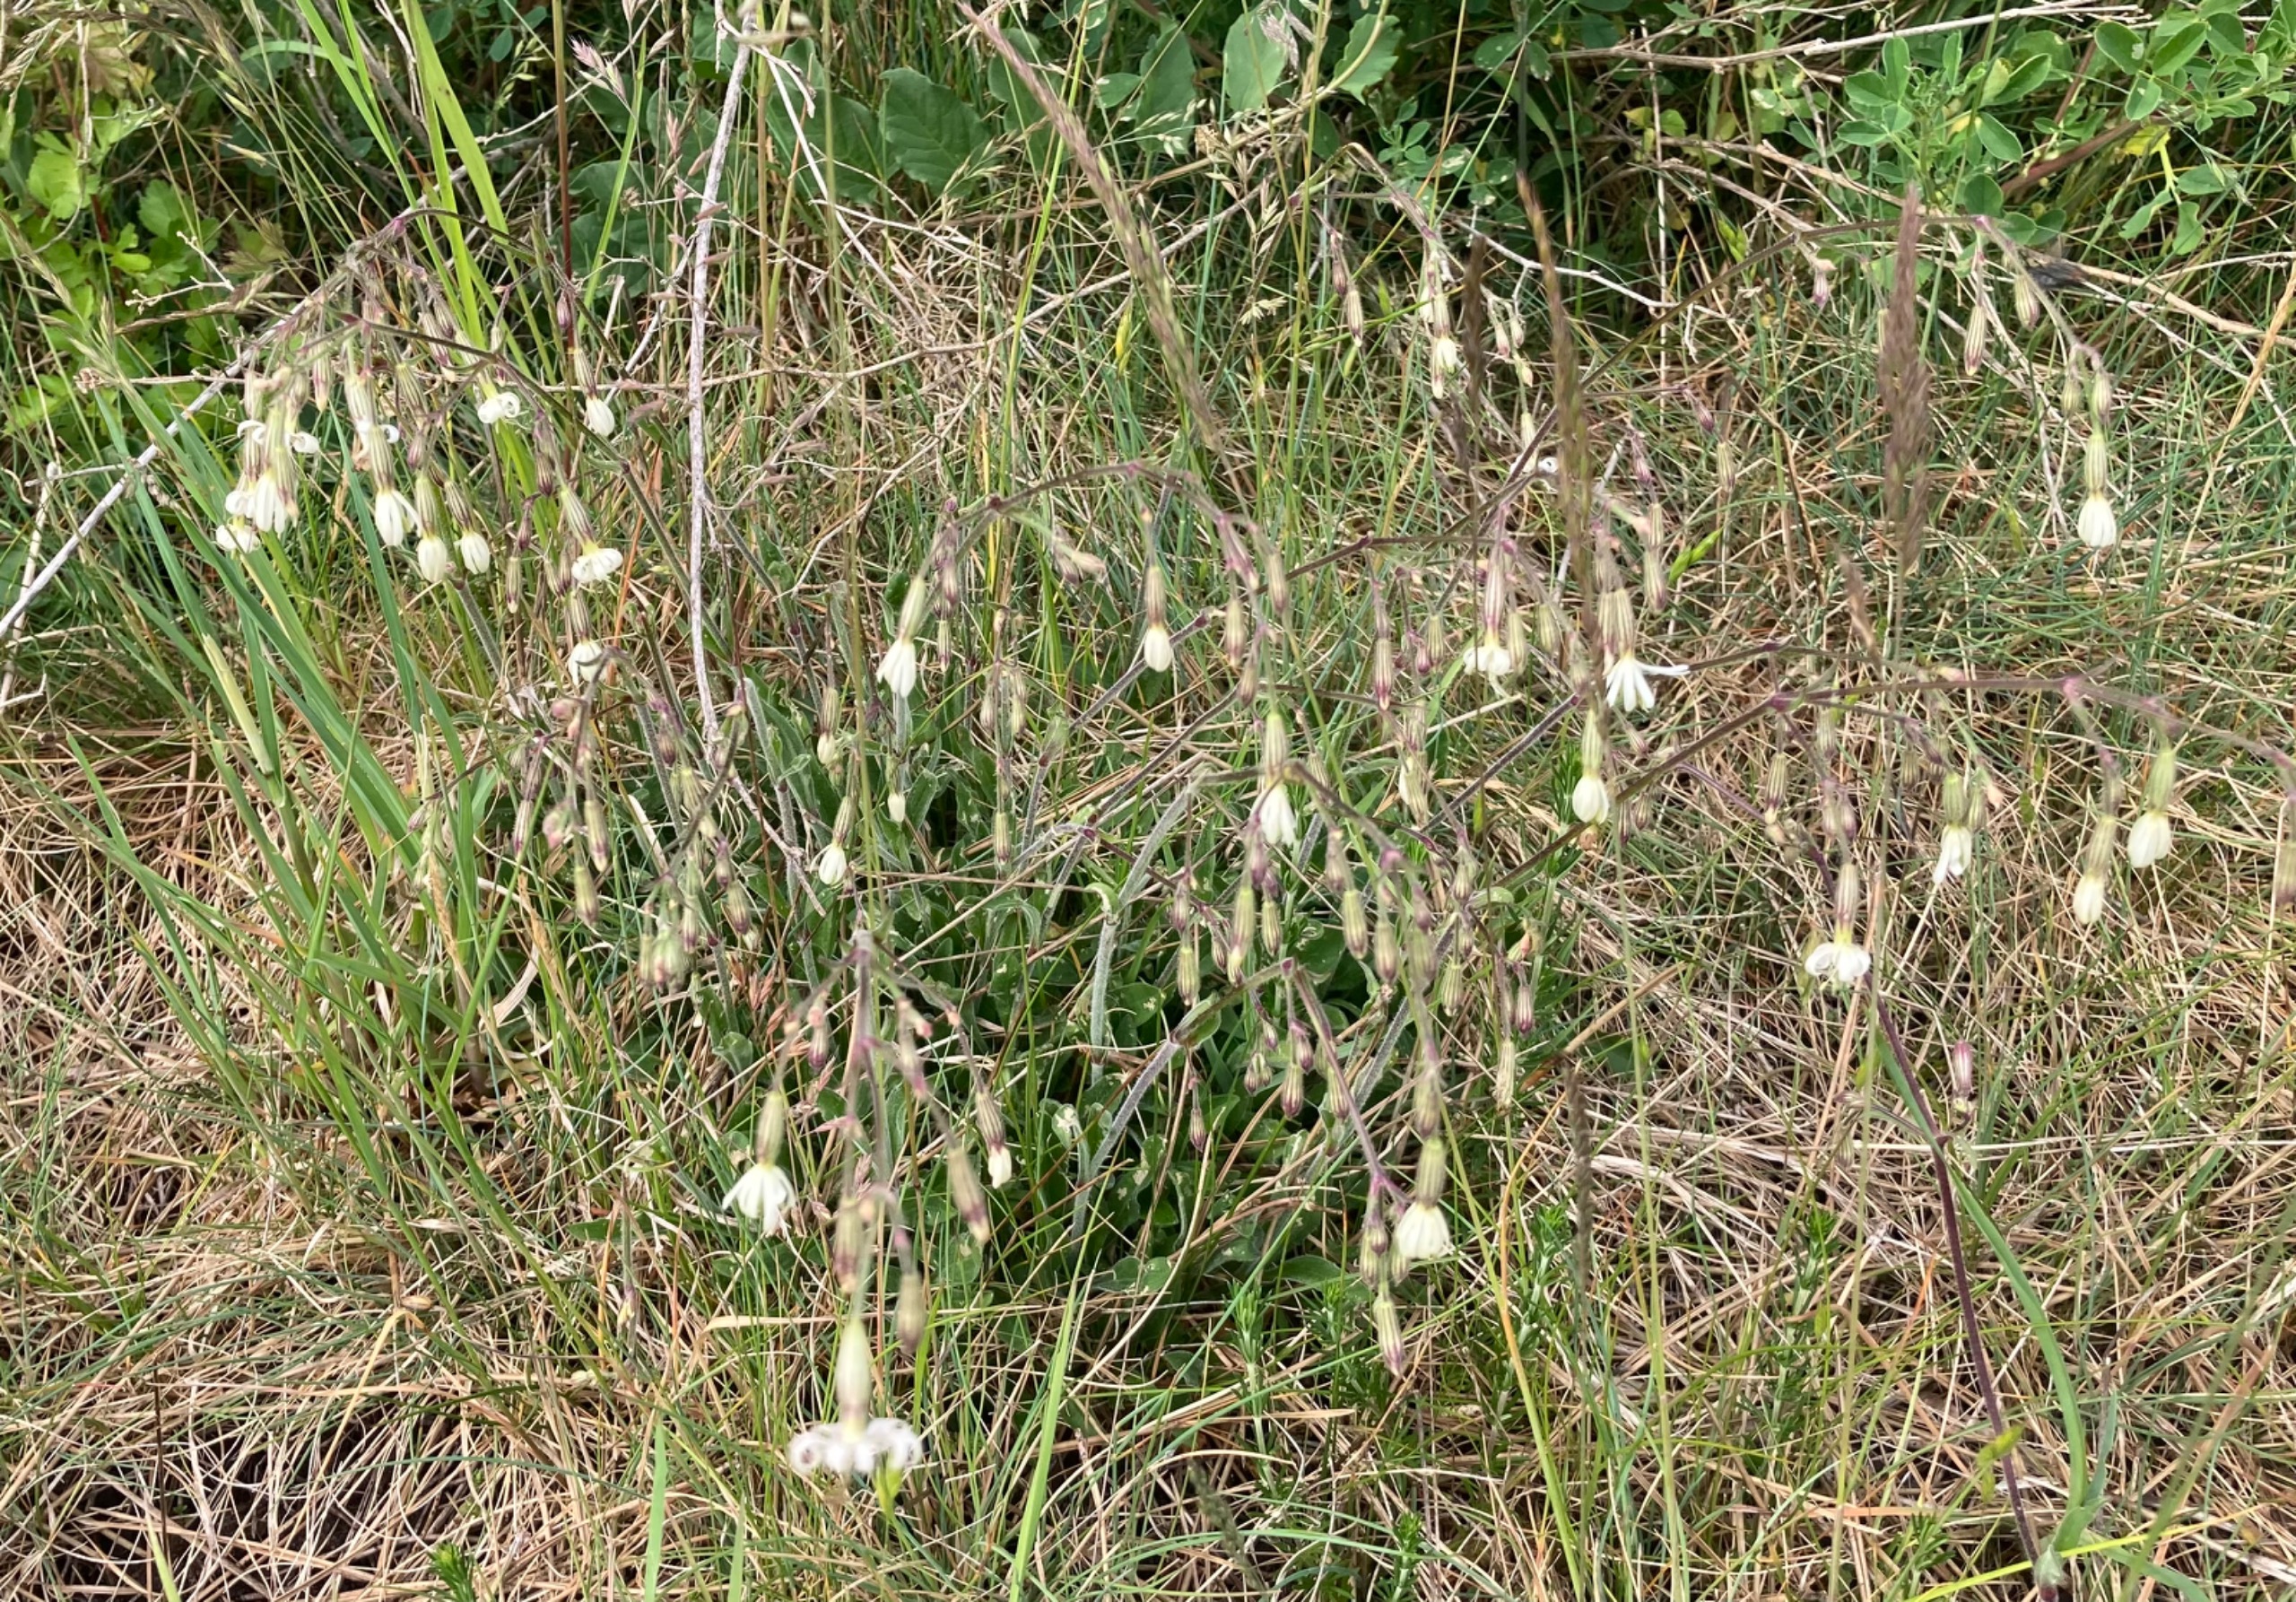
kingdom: Plantae
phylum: Tracheophyta
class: Magnoliopsida
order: Caryophyllales
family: Caryophyllaceae
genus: Silene
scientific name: Silene nutans
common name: Nikkende limurt
